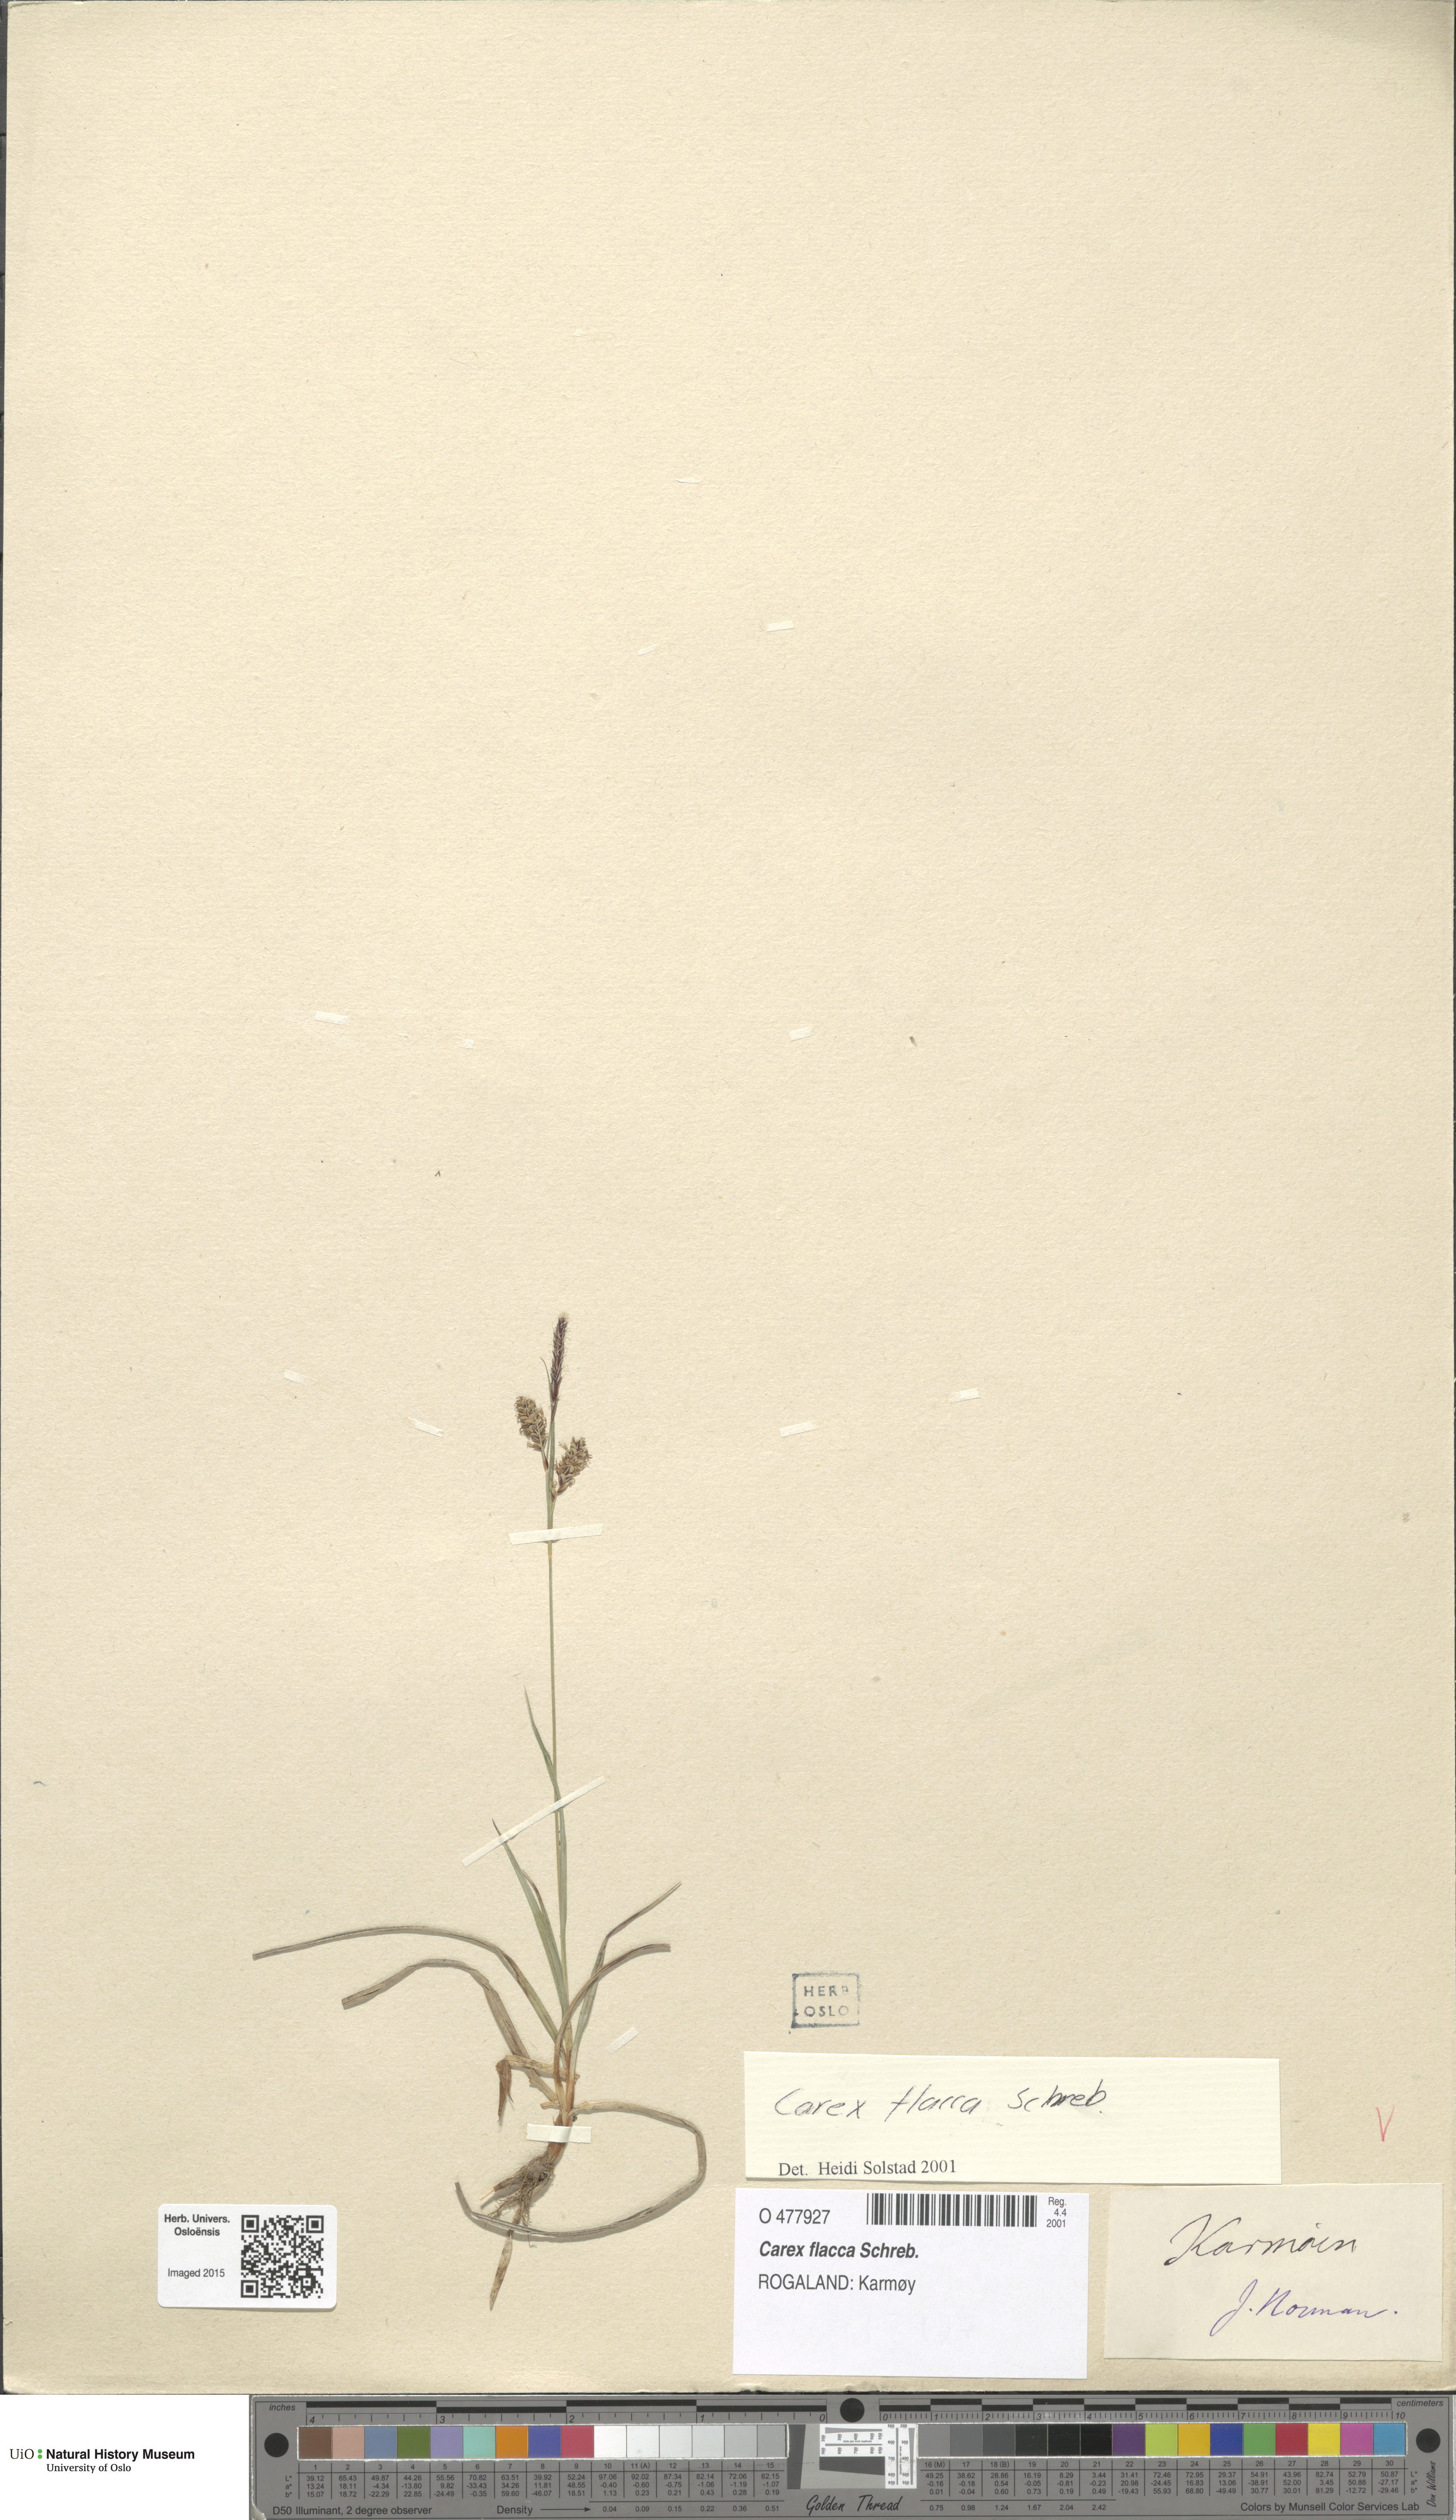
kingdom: Plantae
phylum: Tracheophyta
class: Liliopsida
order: Poales
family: Cyperaceae
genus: Carex
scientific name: Carex flacca
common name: Glaucous sedge
